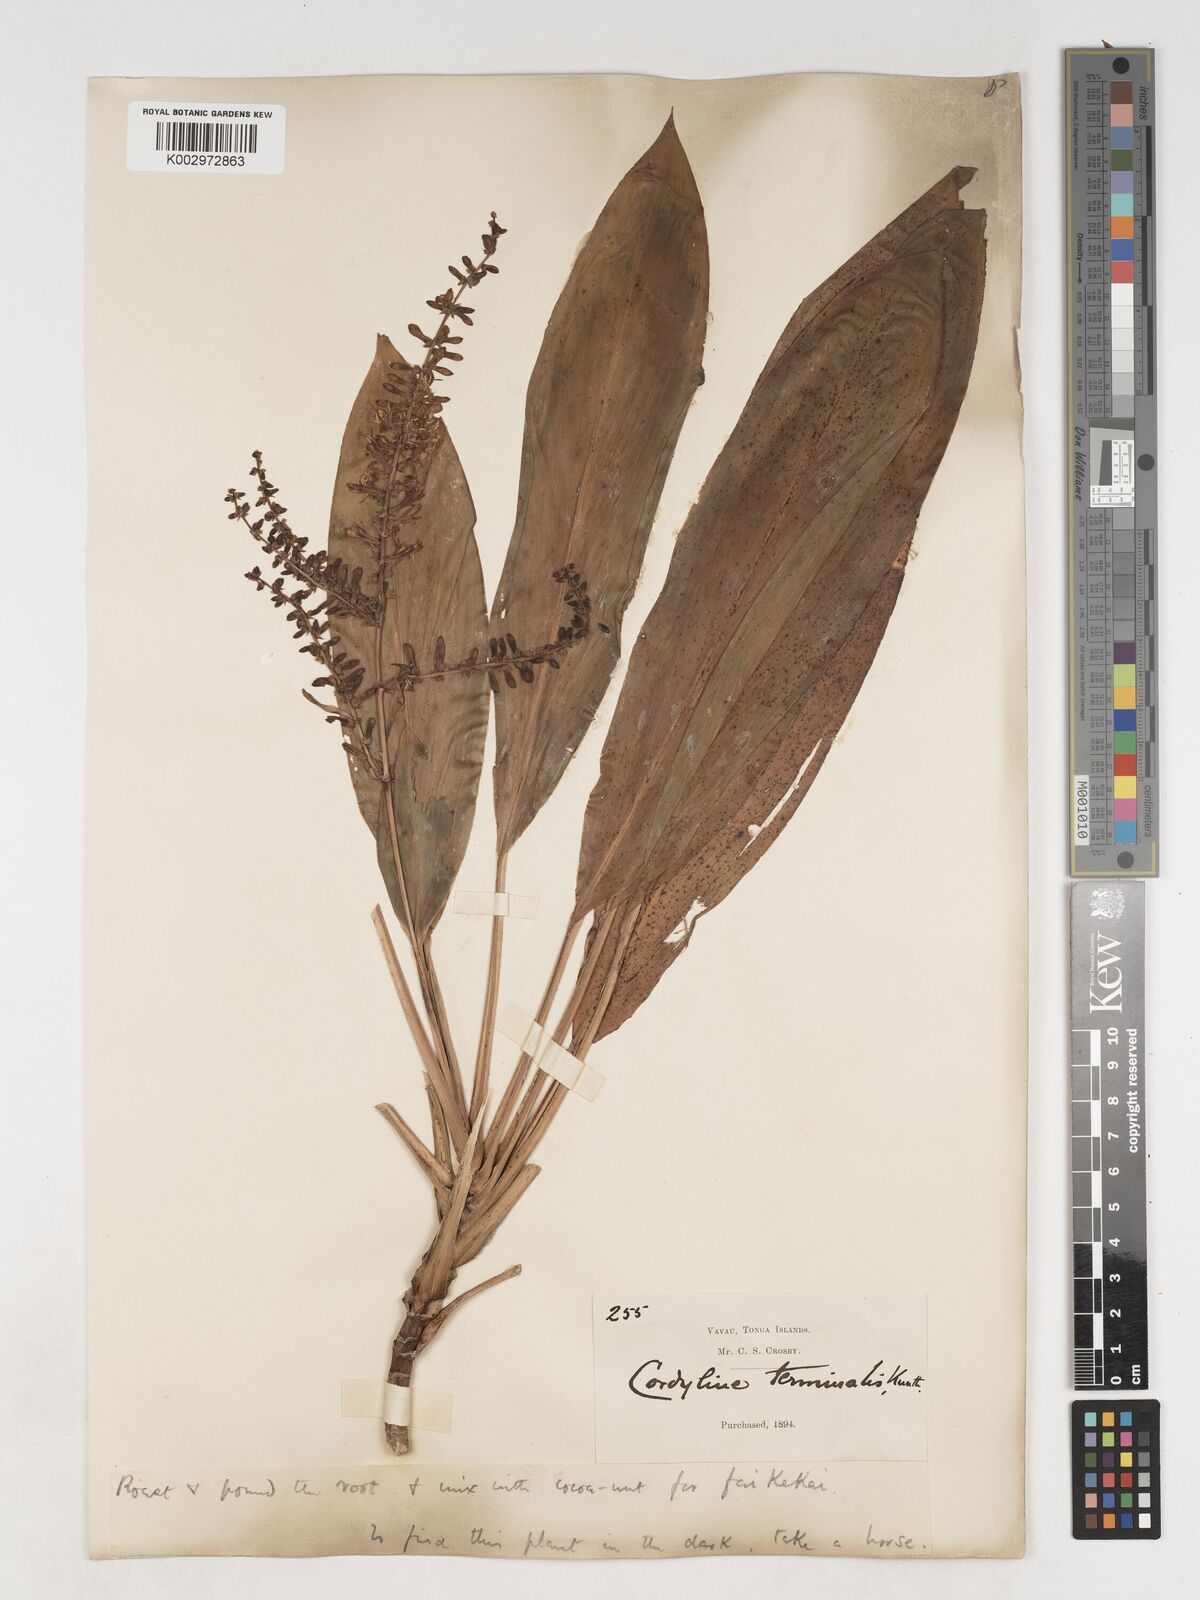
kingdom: Plantae
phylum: Tracheophyta
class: Liliopsida
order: Asparagales
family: Asparagaceae
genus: Cordyline
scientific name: Cordyline fruticosa
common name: Good-luck-plant
